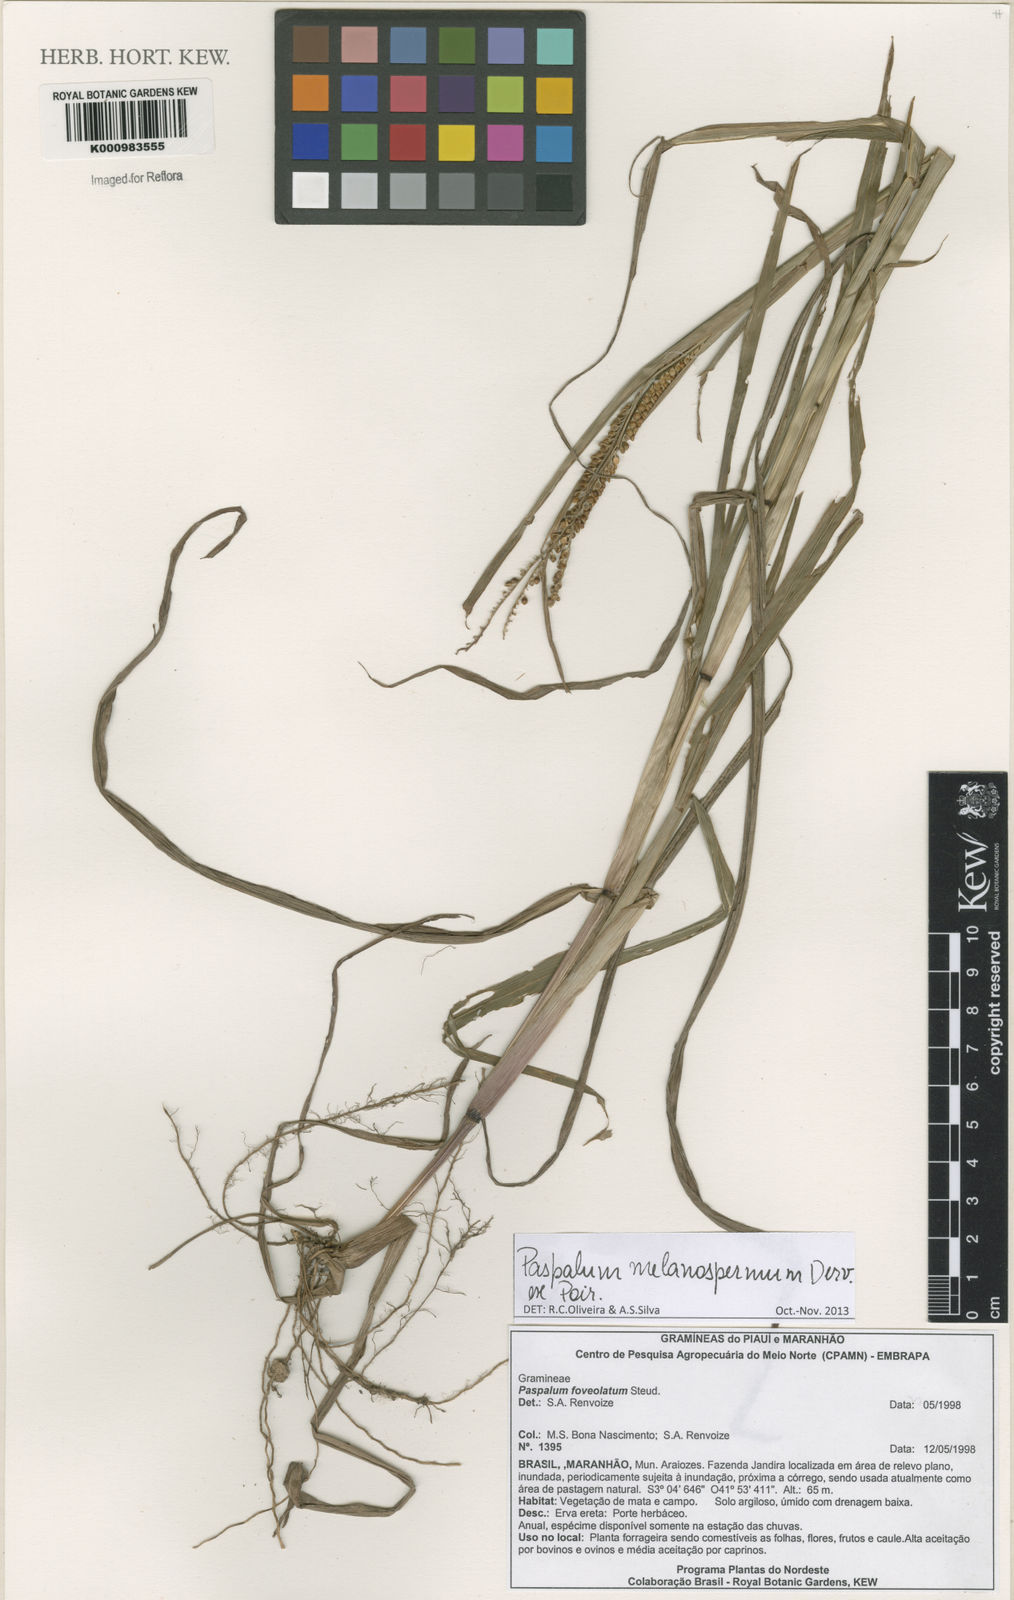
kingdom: Plantae
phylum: Tracheophyta
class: Liliopsida
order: Poales
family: Poaceae
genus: Paspalum
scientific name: Paspalum melanospermum
